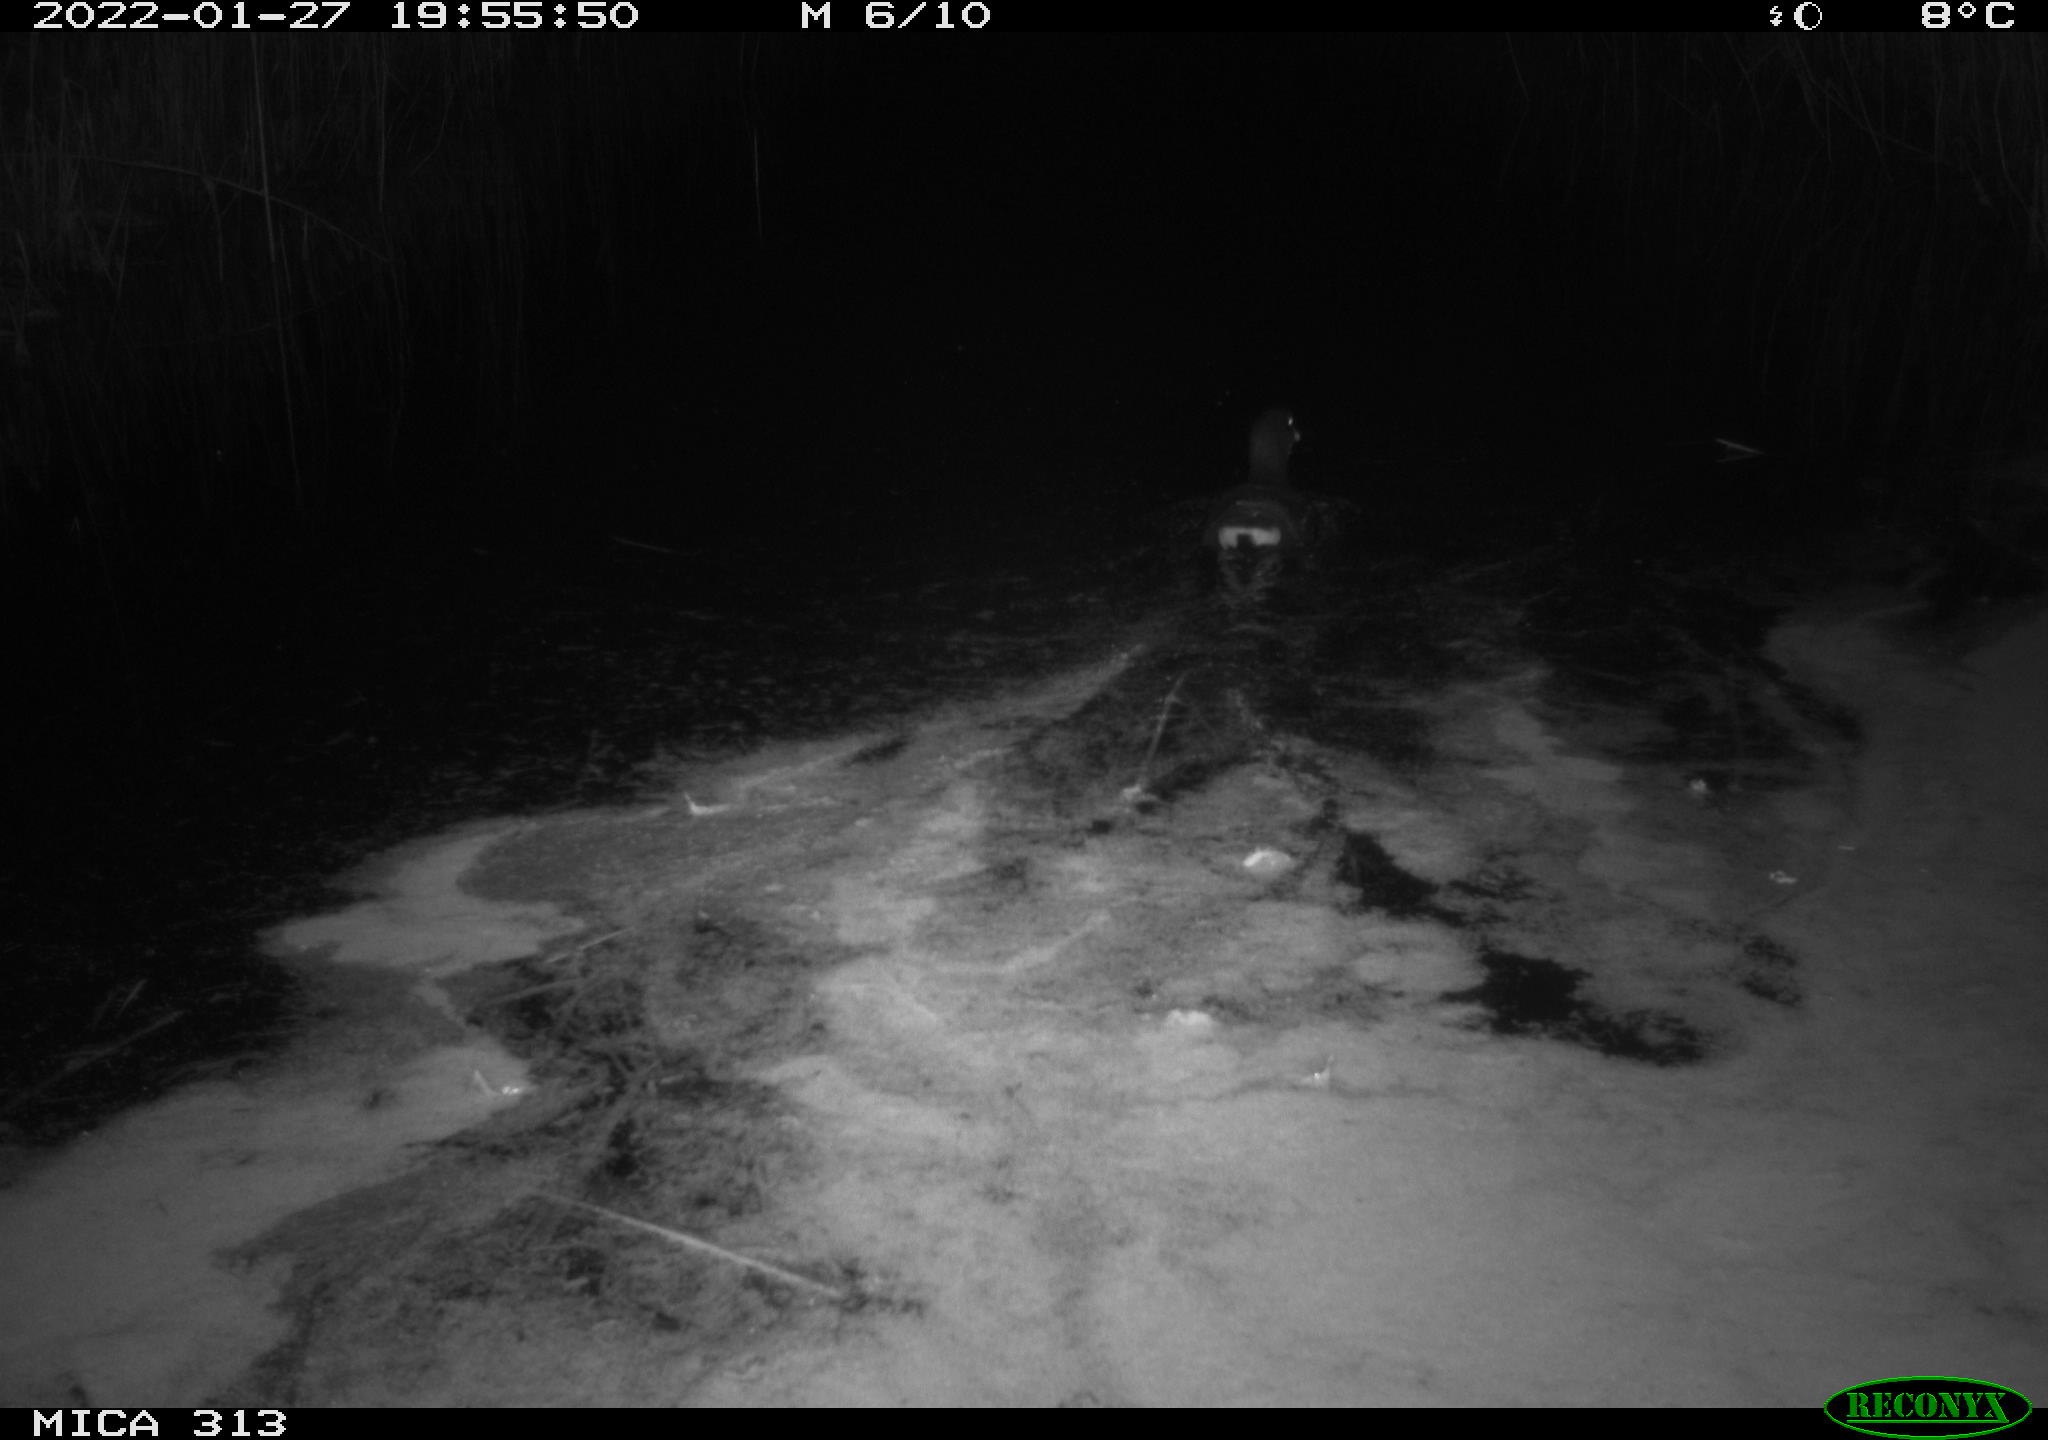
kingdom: Animalia
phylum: Chordata
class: Aves
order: Gruiformes
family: Rallidae
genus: Gallinula
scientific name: Gallinula chloropus
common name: Common moorhen
